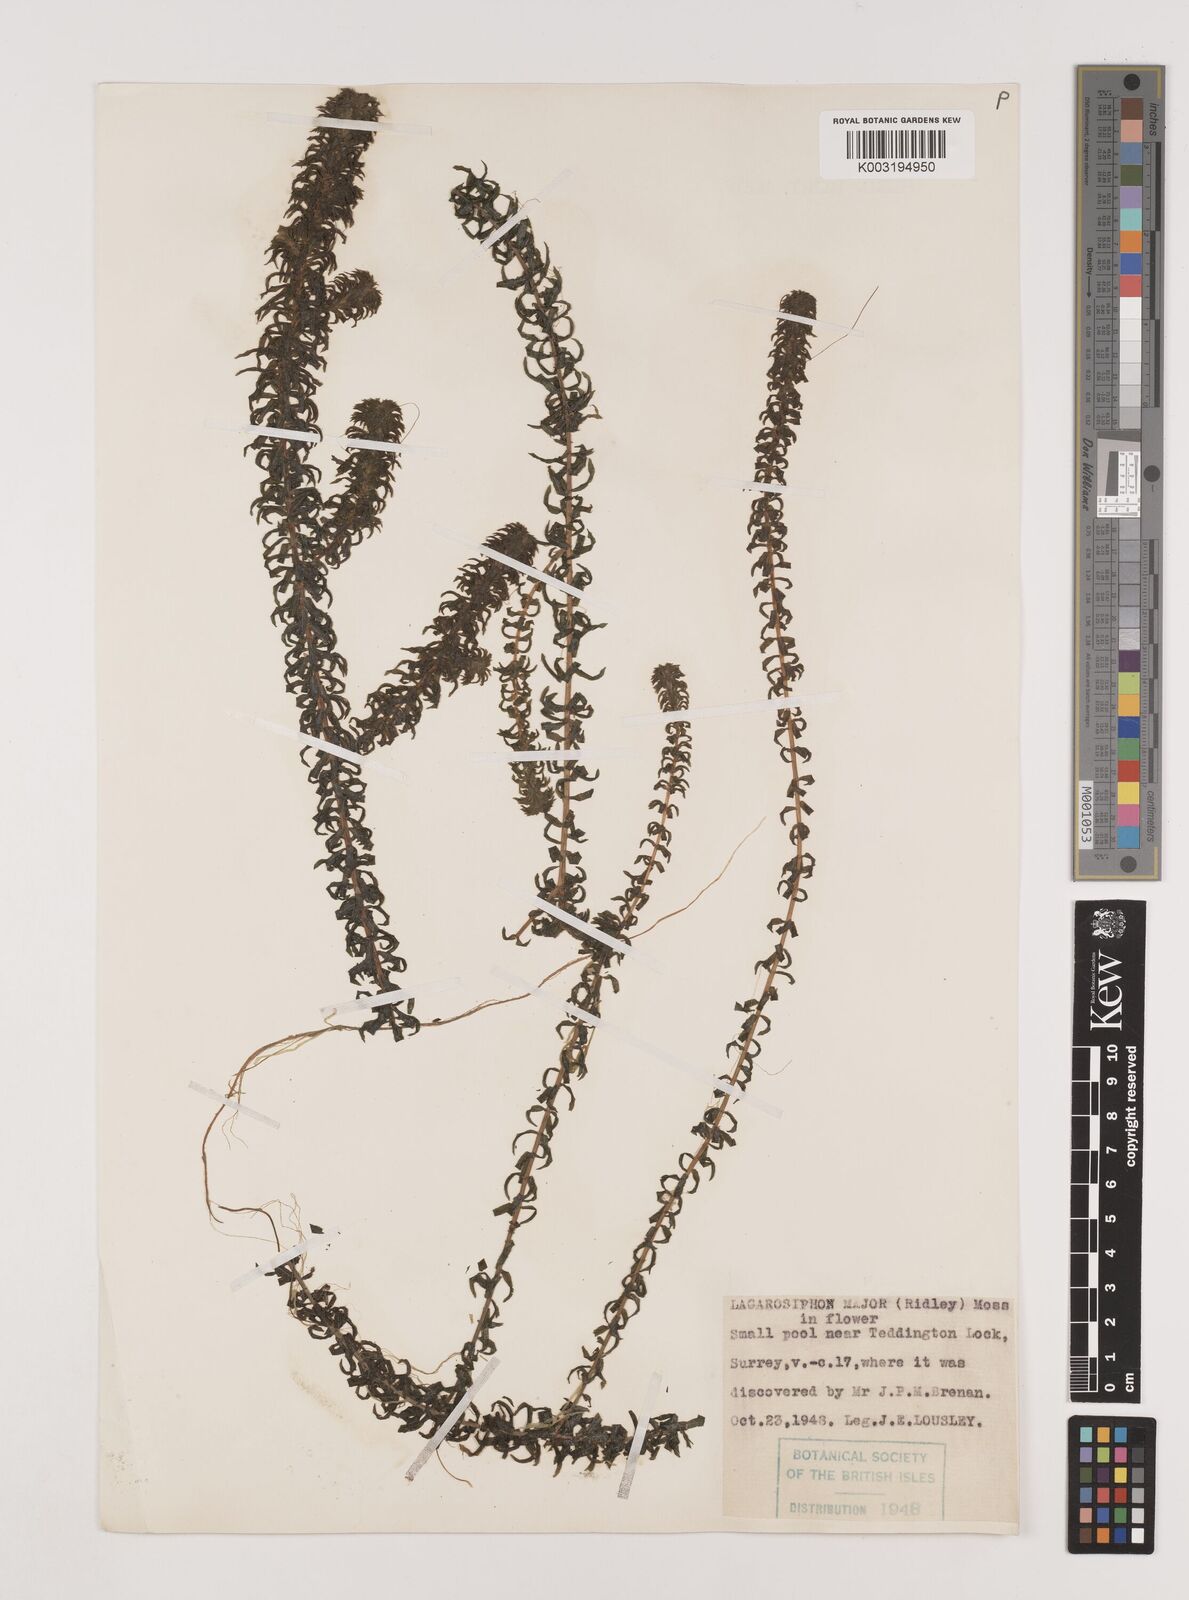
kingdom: Plantae
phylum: Tracheophyta
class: Liliopsida
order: Alismatales
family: Hydrocharitaceae
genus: Lagarosiphon
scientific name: Lagarosiphon major
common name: Curly waterweed
